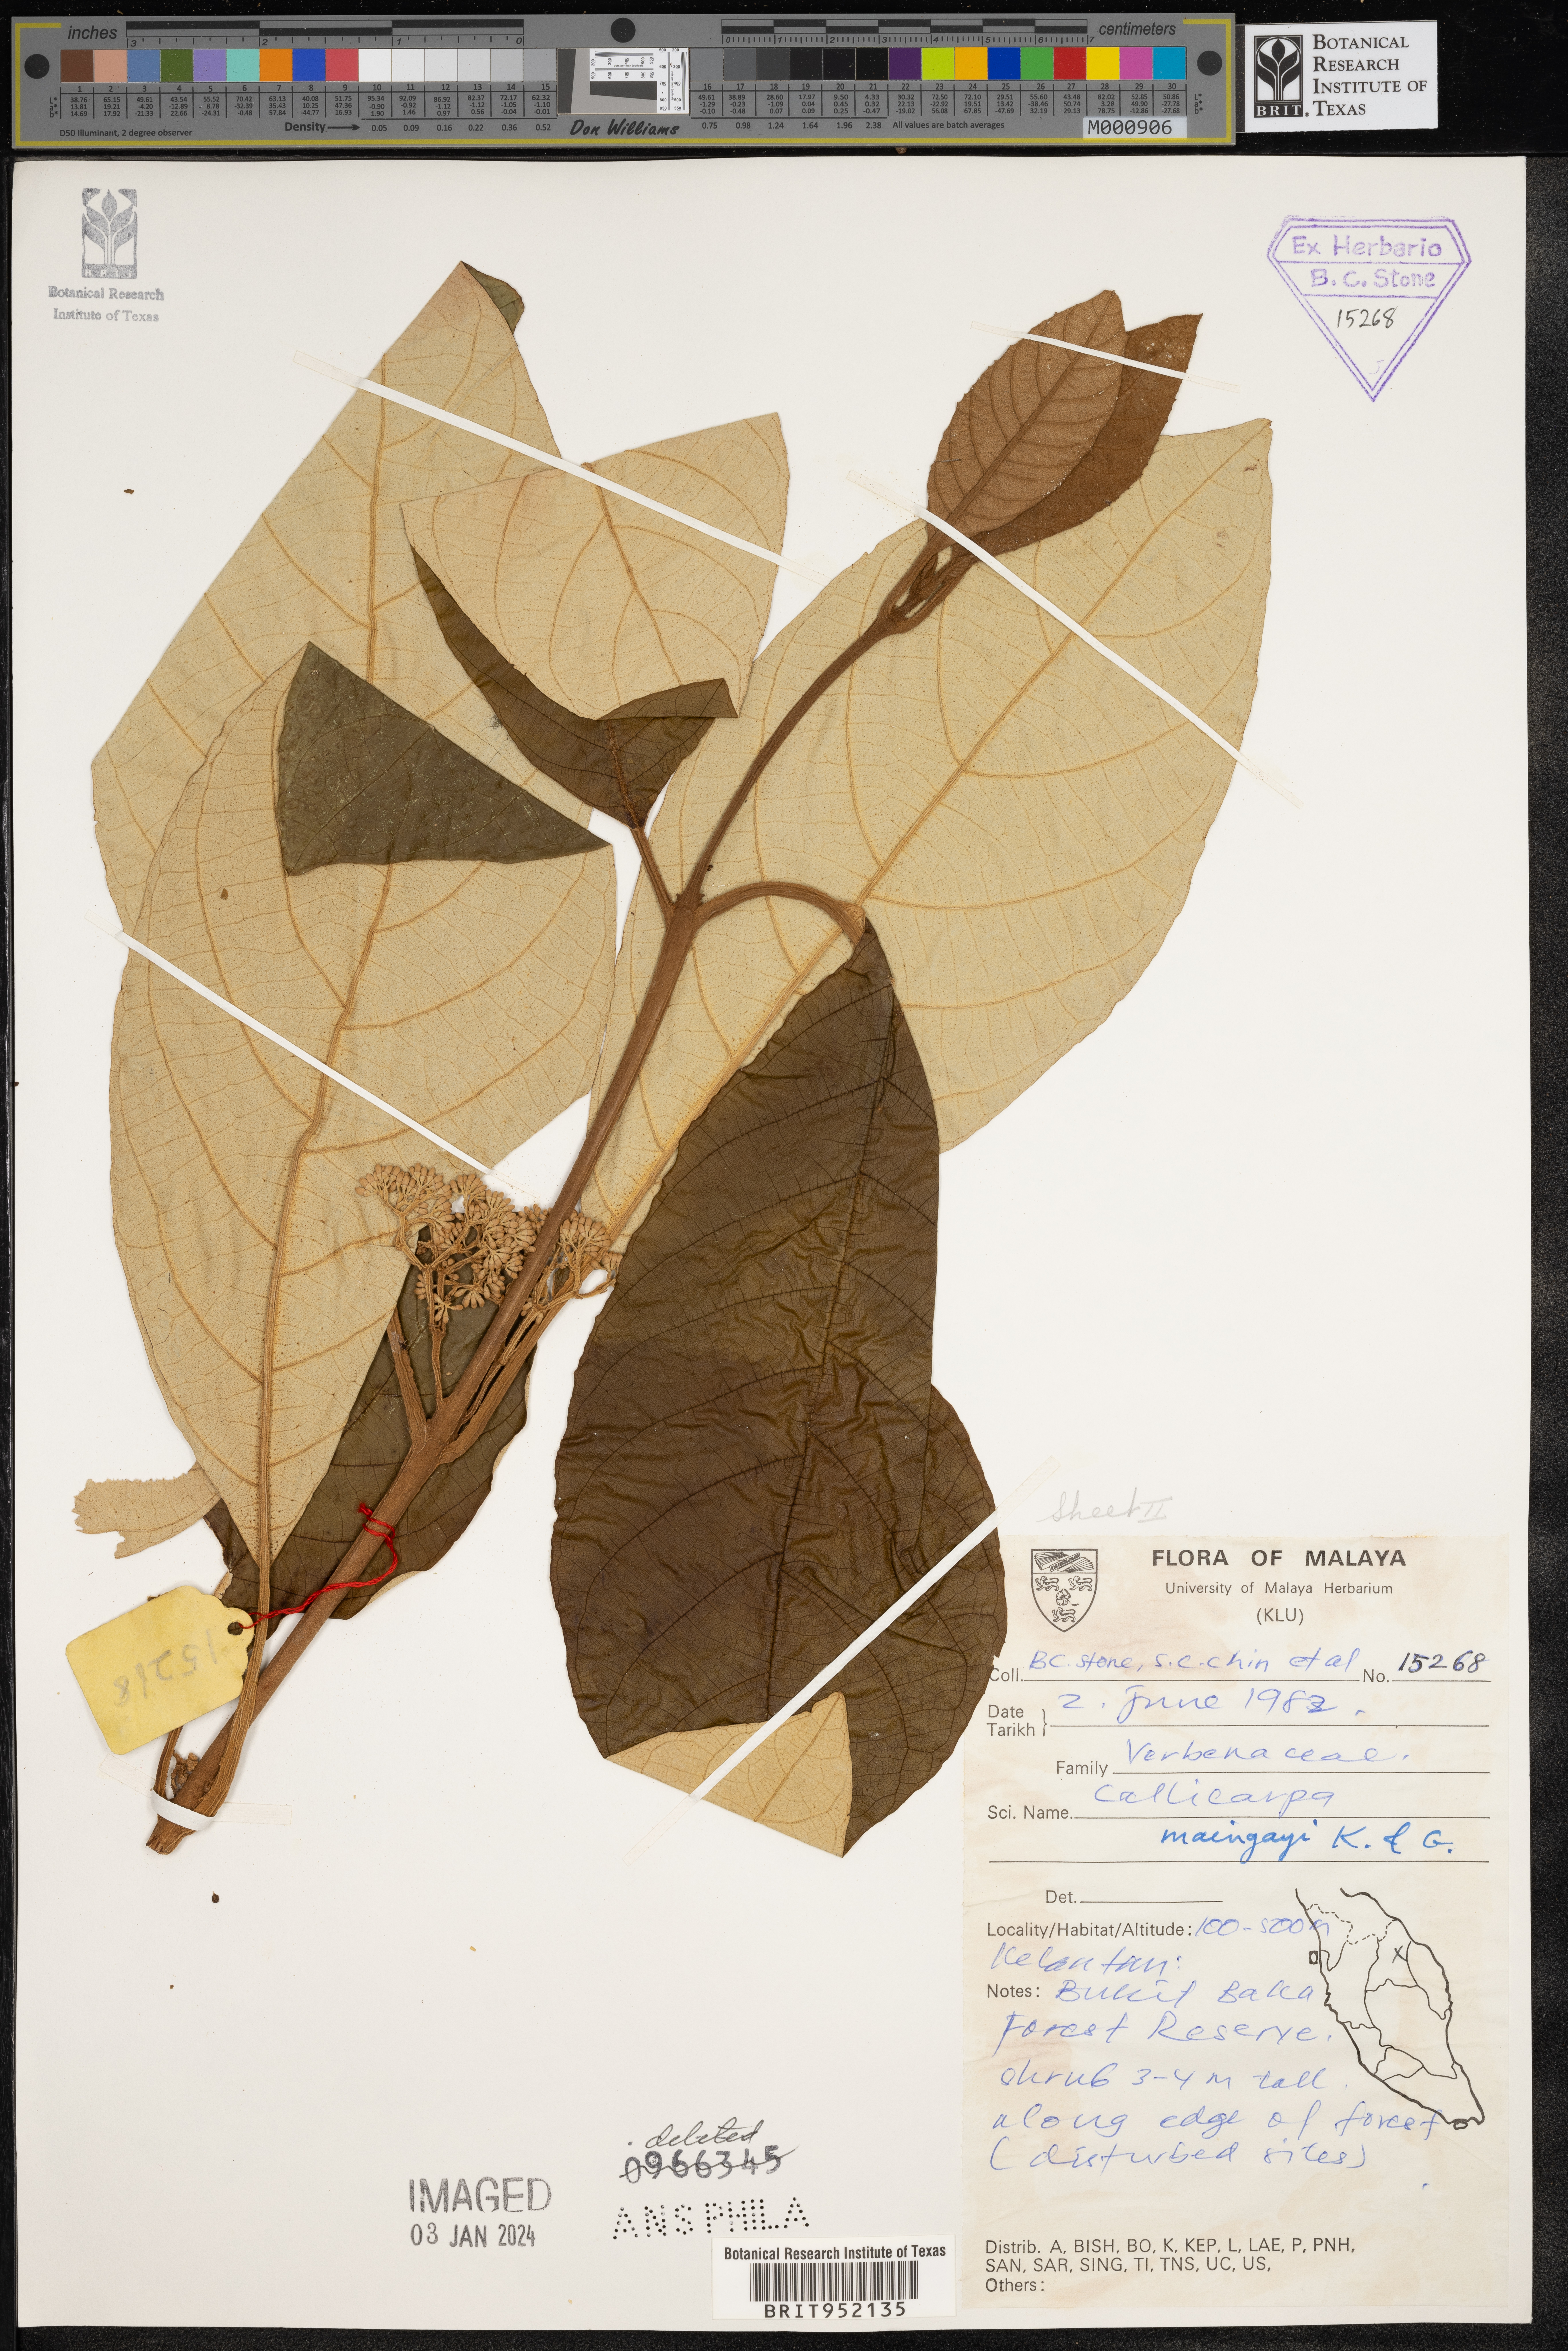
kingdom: Plantae
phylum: Tracheophyta
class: Magnoliopsida
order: Lamiales
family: Lamiaceae
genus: Callicarpa
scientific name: Callicarpa
